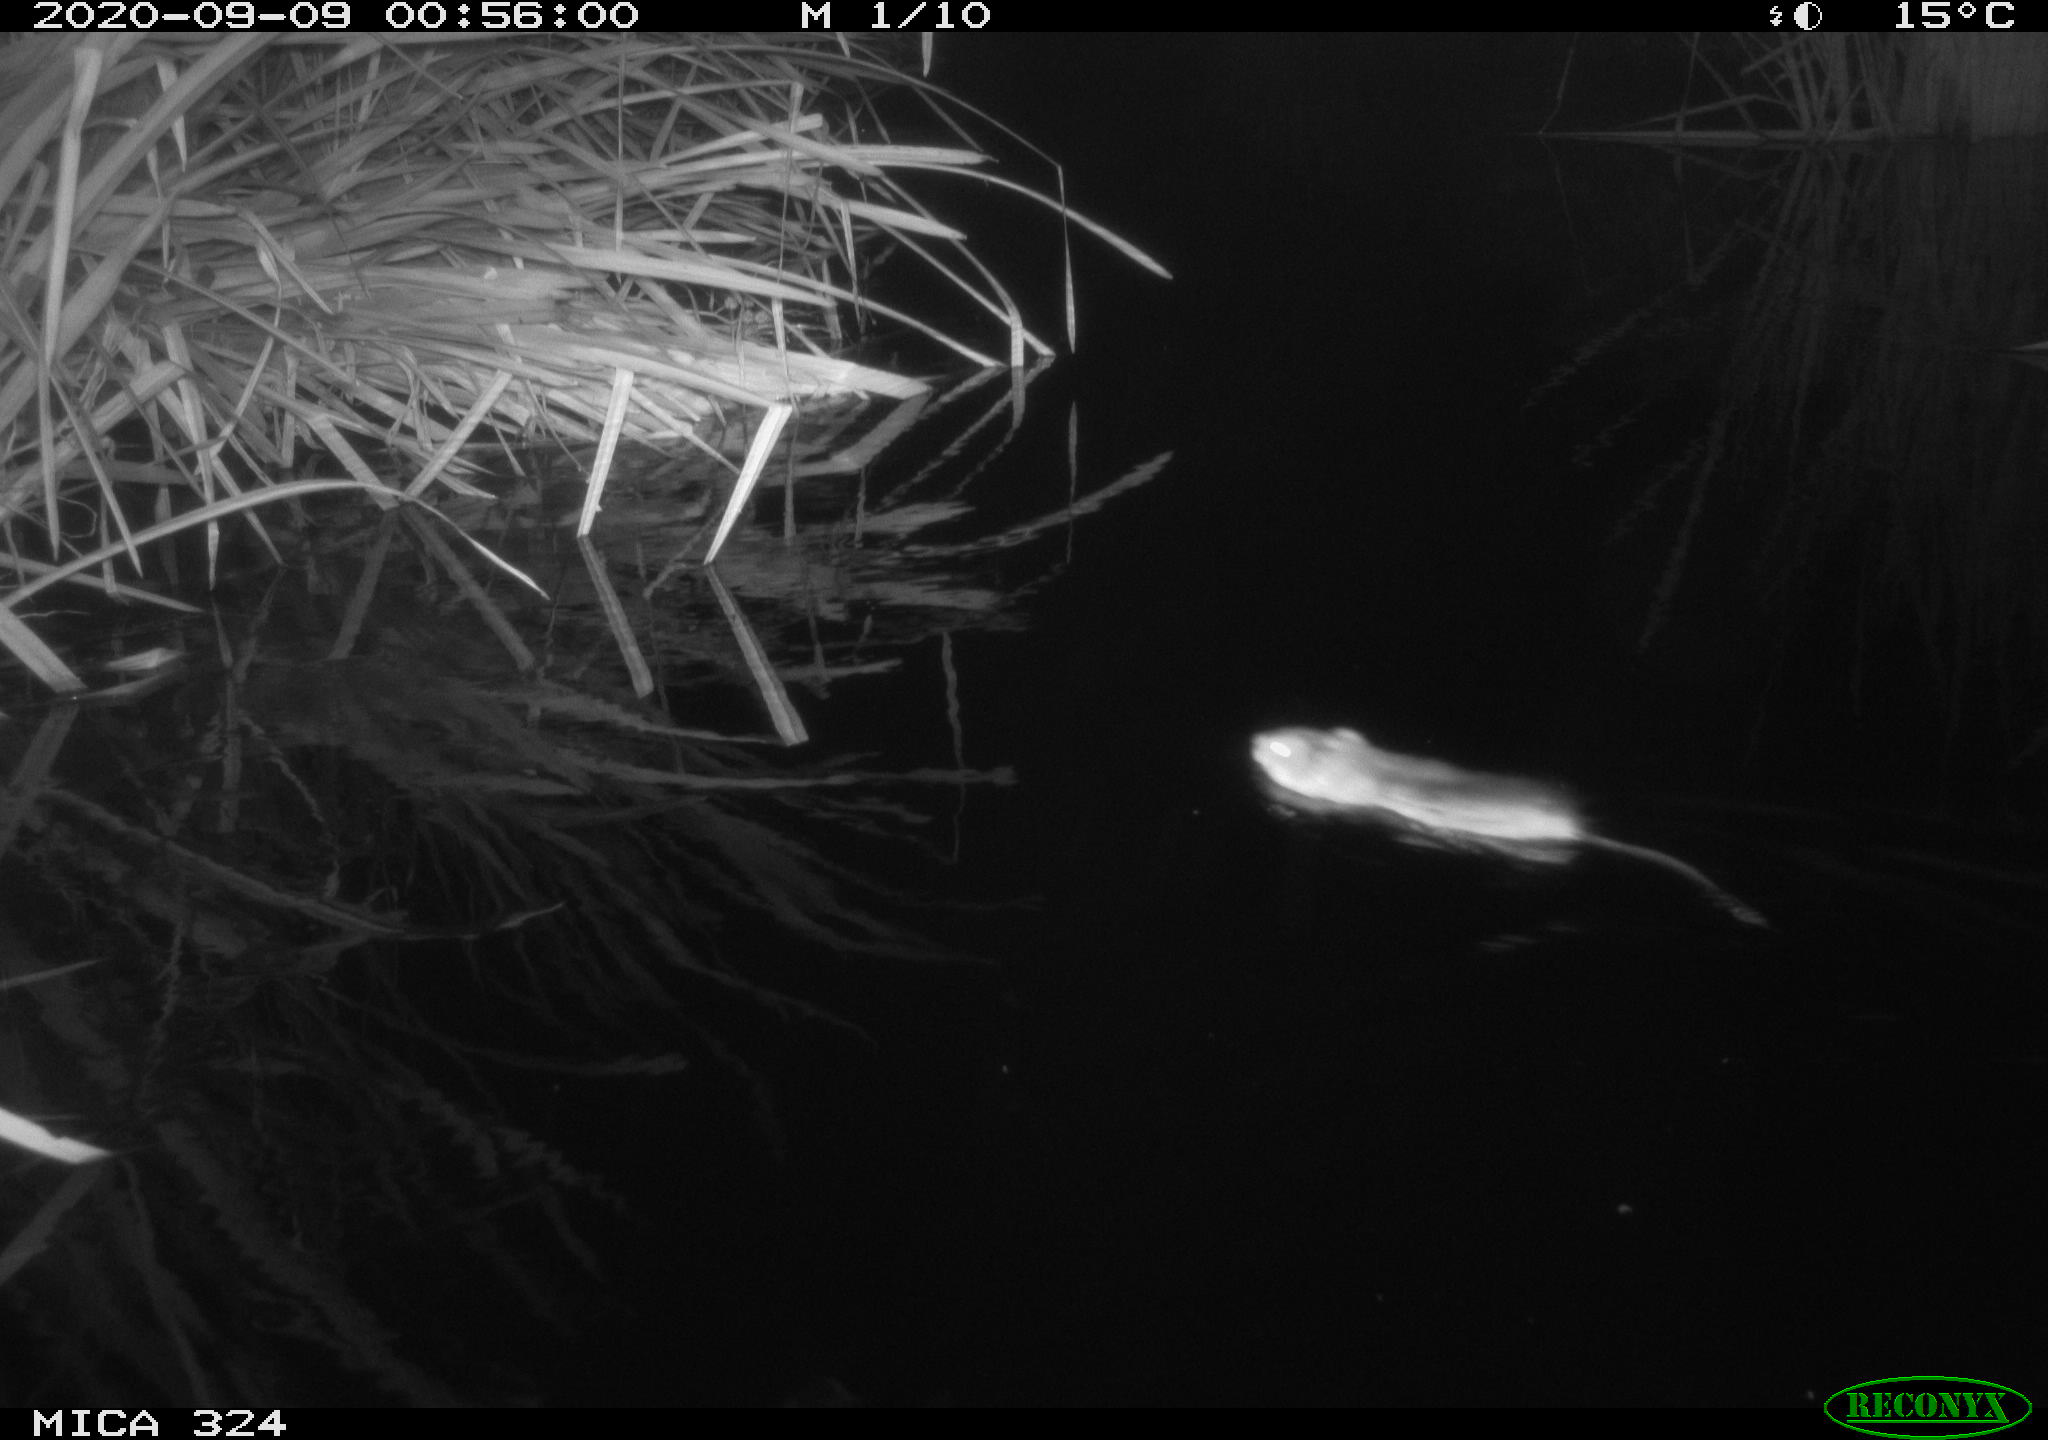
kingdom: Animalia
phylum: Chordata
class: Mammalia
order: Rodentia
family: Cricetidae
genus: Ondatra
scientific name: Ondatra zibethicus
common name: Muskrat
